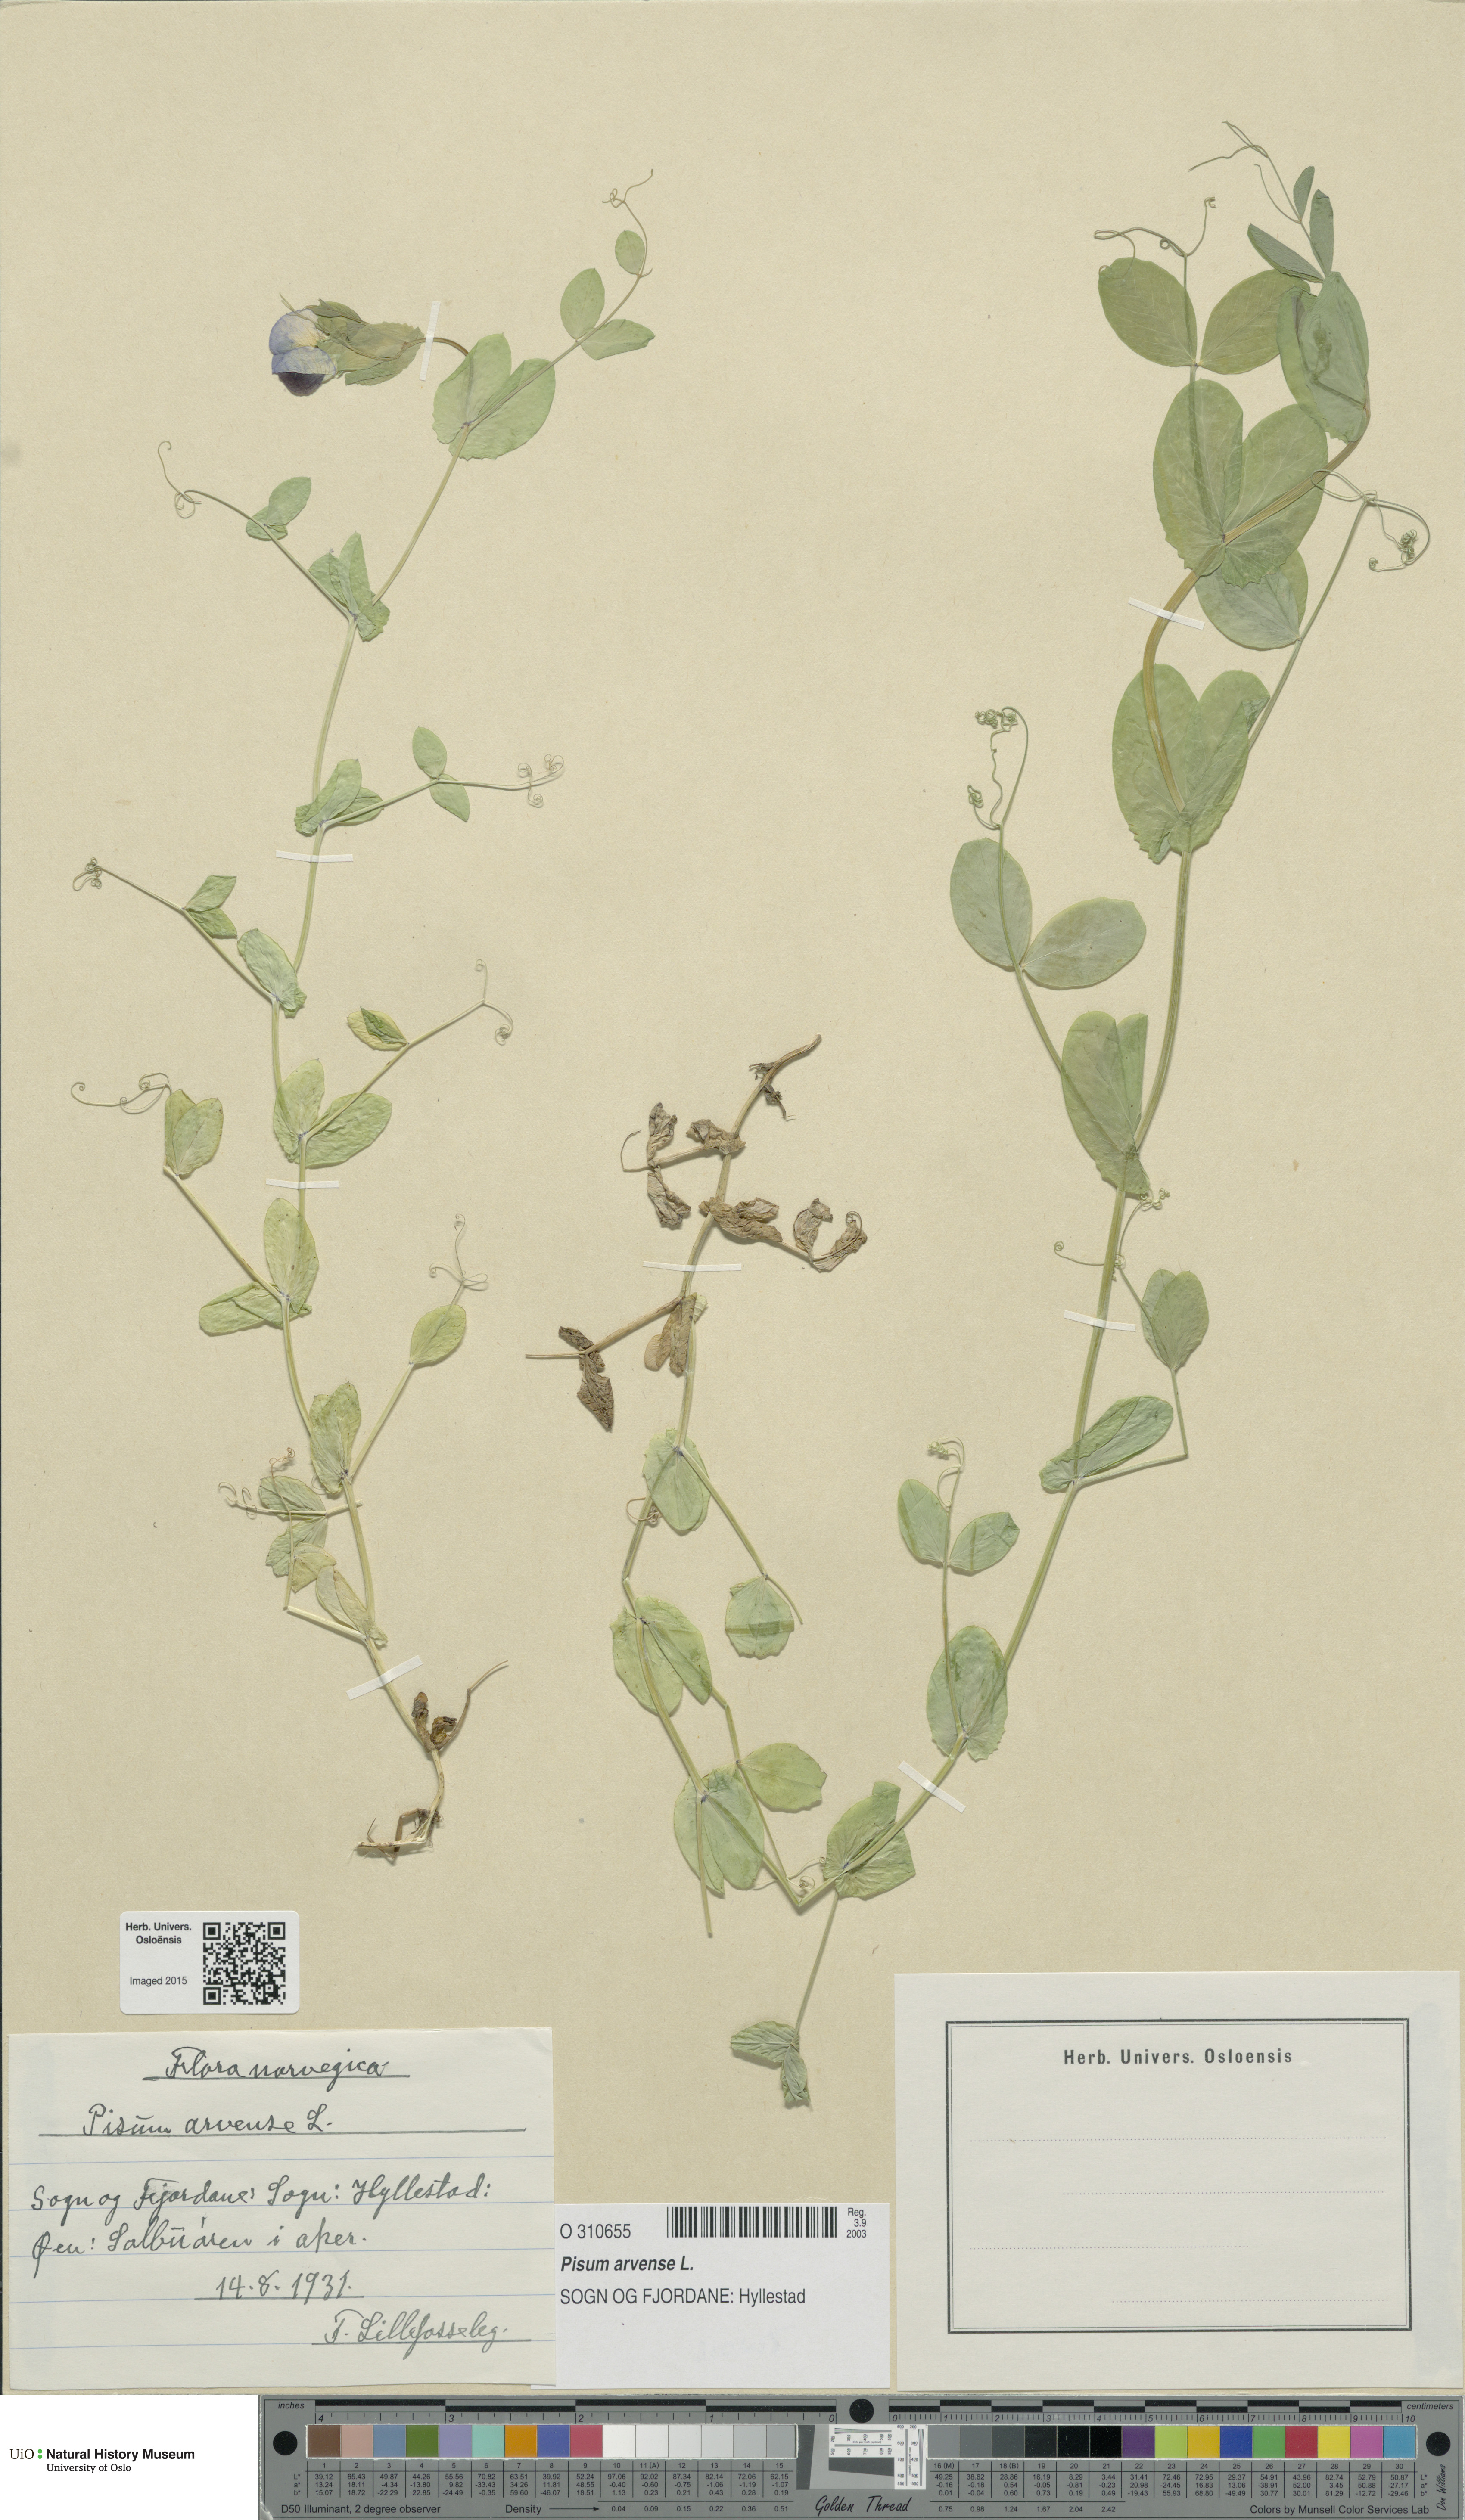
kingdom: Plantae
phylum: Tracheophyta
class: Magnoliopsida
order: Fabales
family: Fabaceae
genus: Lathyrus
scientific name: Lathyrus oleraceus
